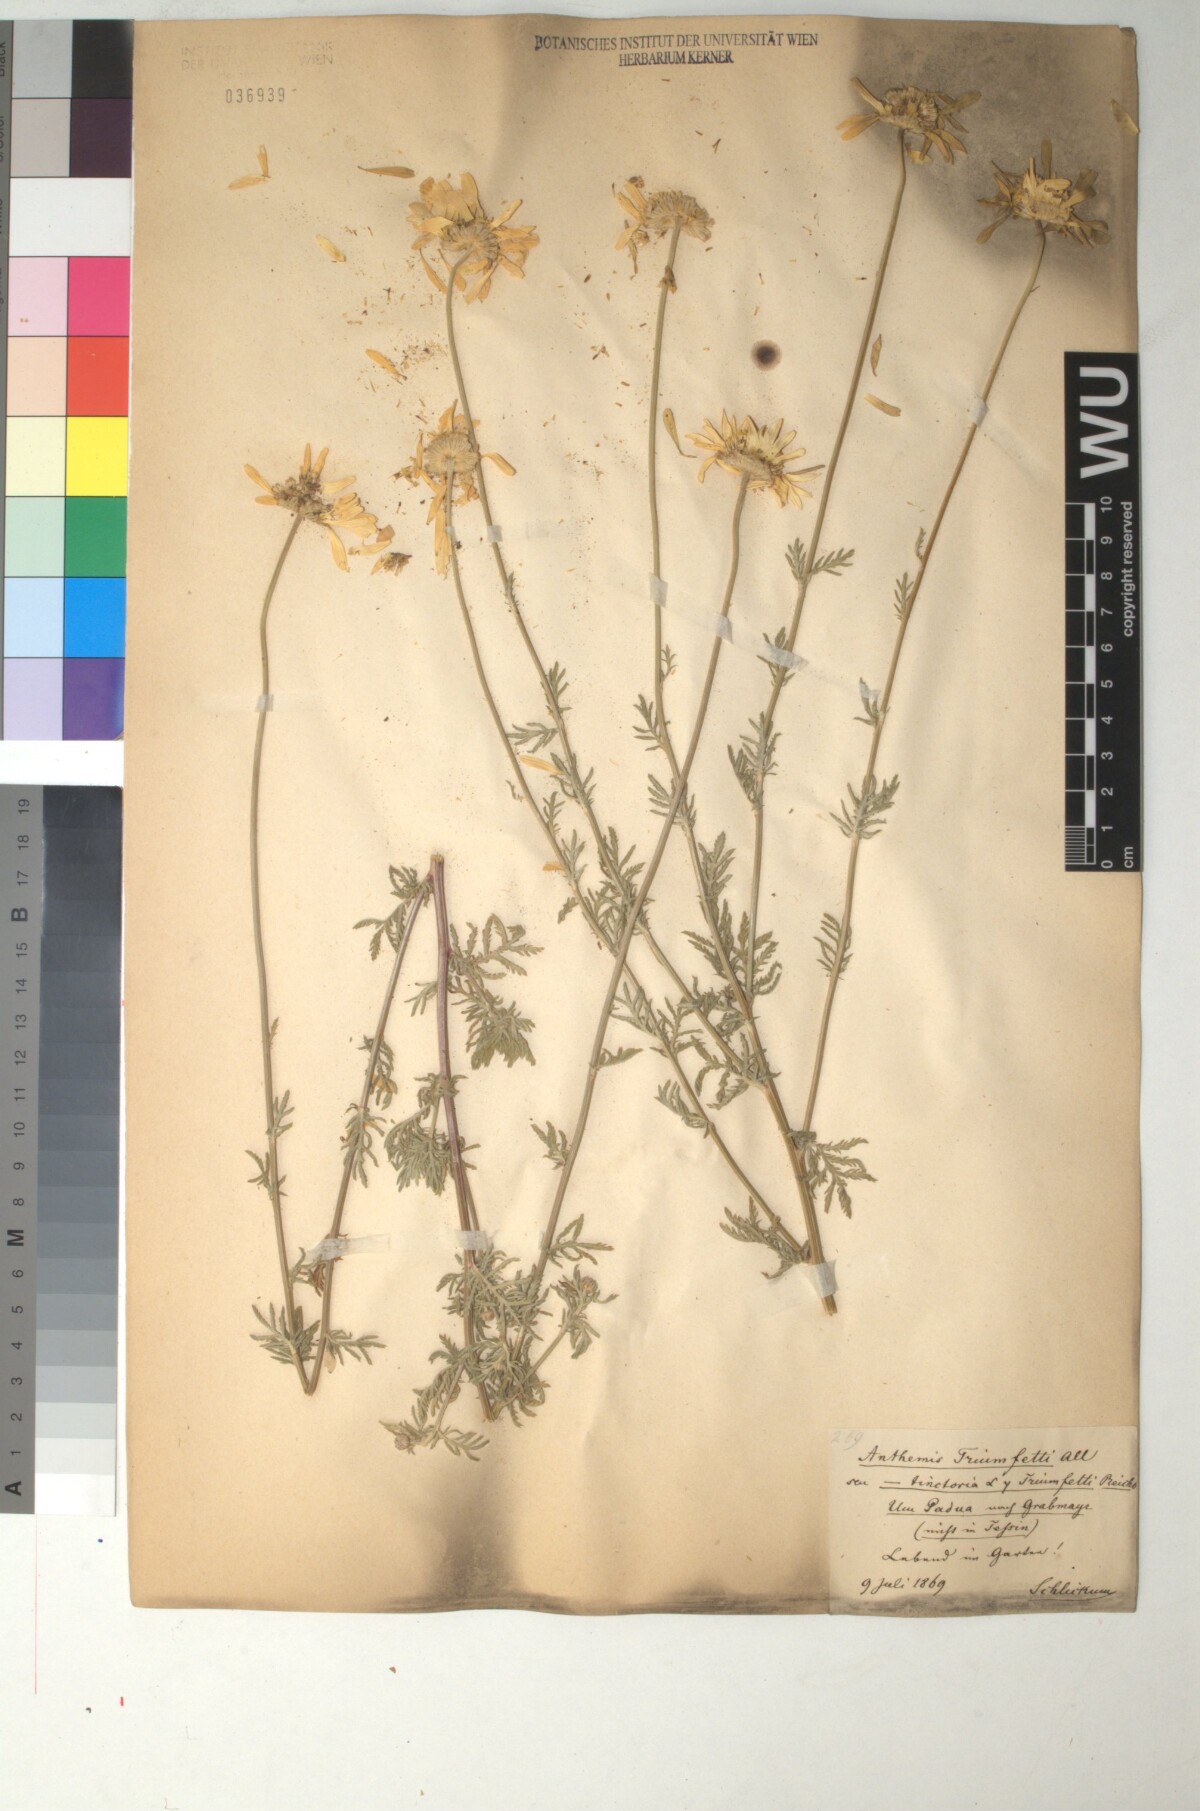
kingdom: Plantae
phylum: Tracheophyta
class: Magnoliopsida
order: Asterales
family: Asteraceae
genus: Cota
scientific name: Cota triumfetti
